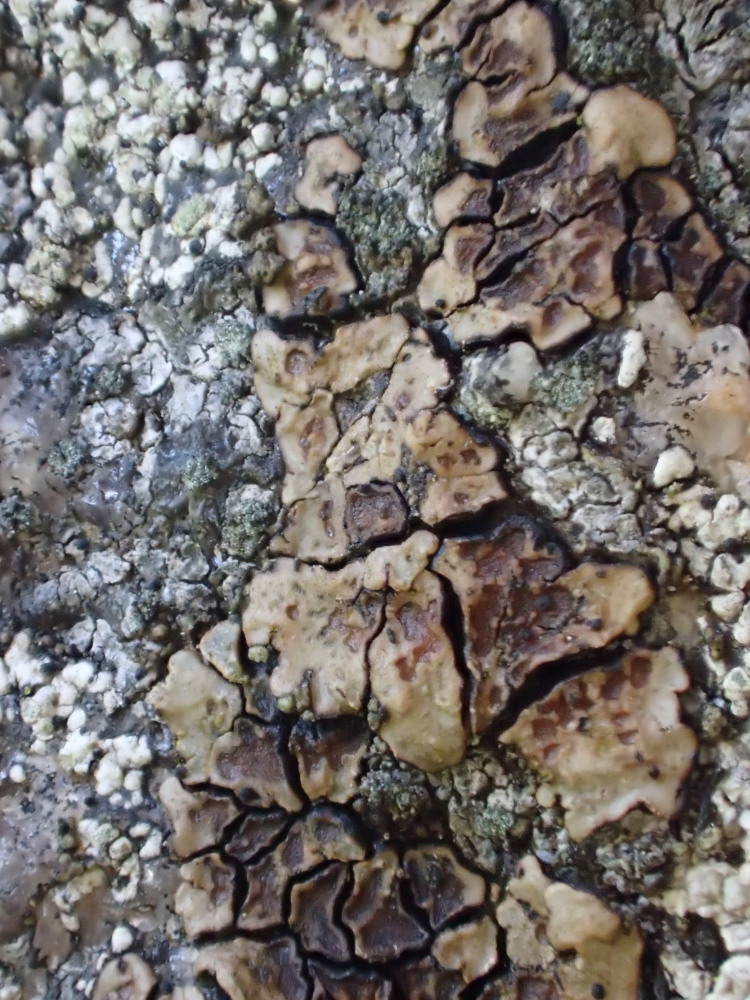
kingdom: Fungi
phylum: Ascomycota
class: Lecanoromycetes
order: Acarosporales
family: Acarosporaceae
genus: Acarospora
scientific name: Acarospora fuscata
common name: brun småsporelav
